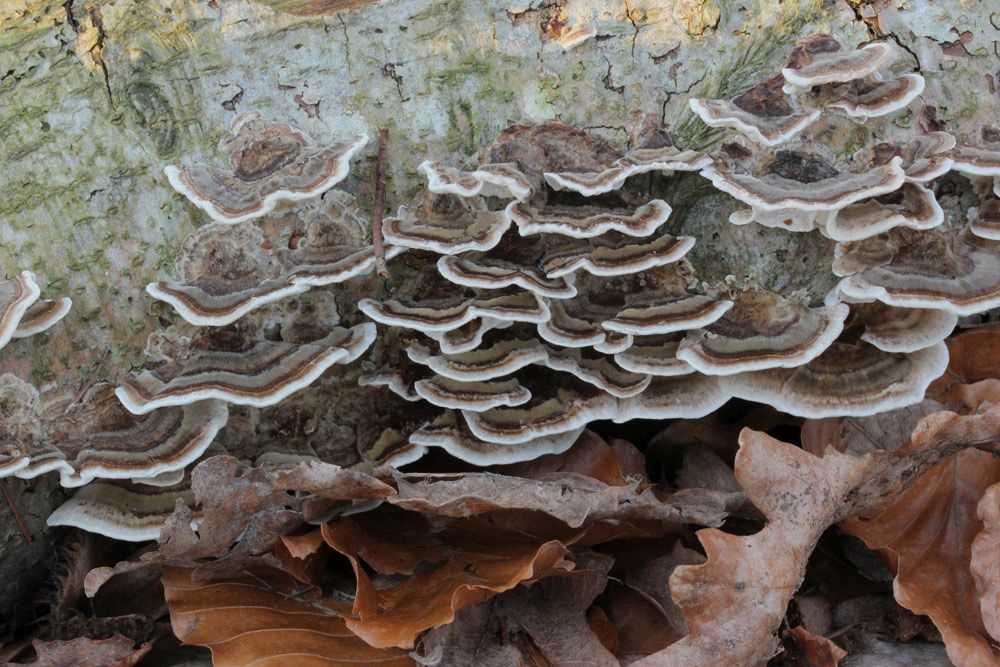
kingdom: Fungi
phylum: Basidiomycota
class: Agaricomycetes
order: Polyporales
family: Polyporaceae
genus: Trametes
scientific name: Trametes versicolor
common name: broget læderporesvamp
